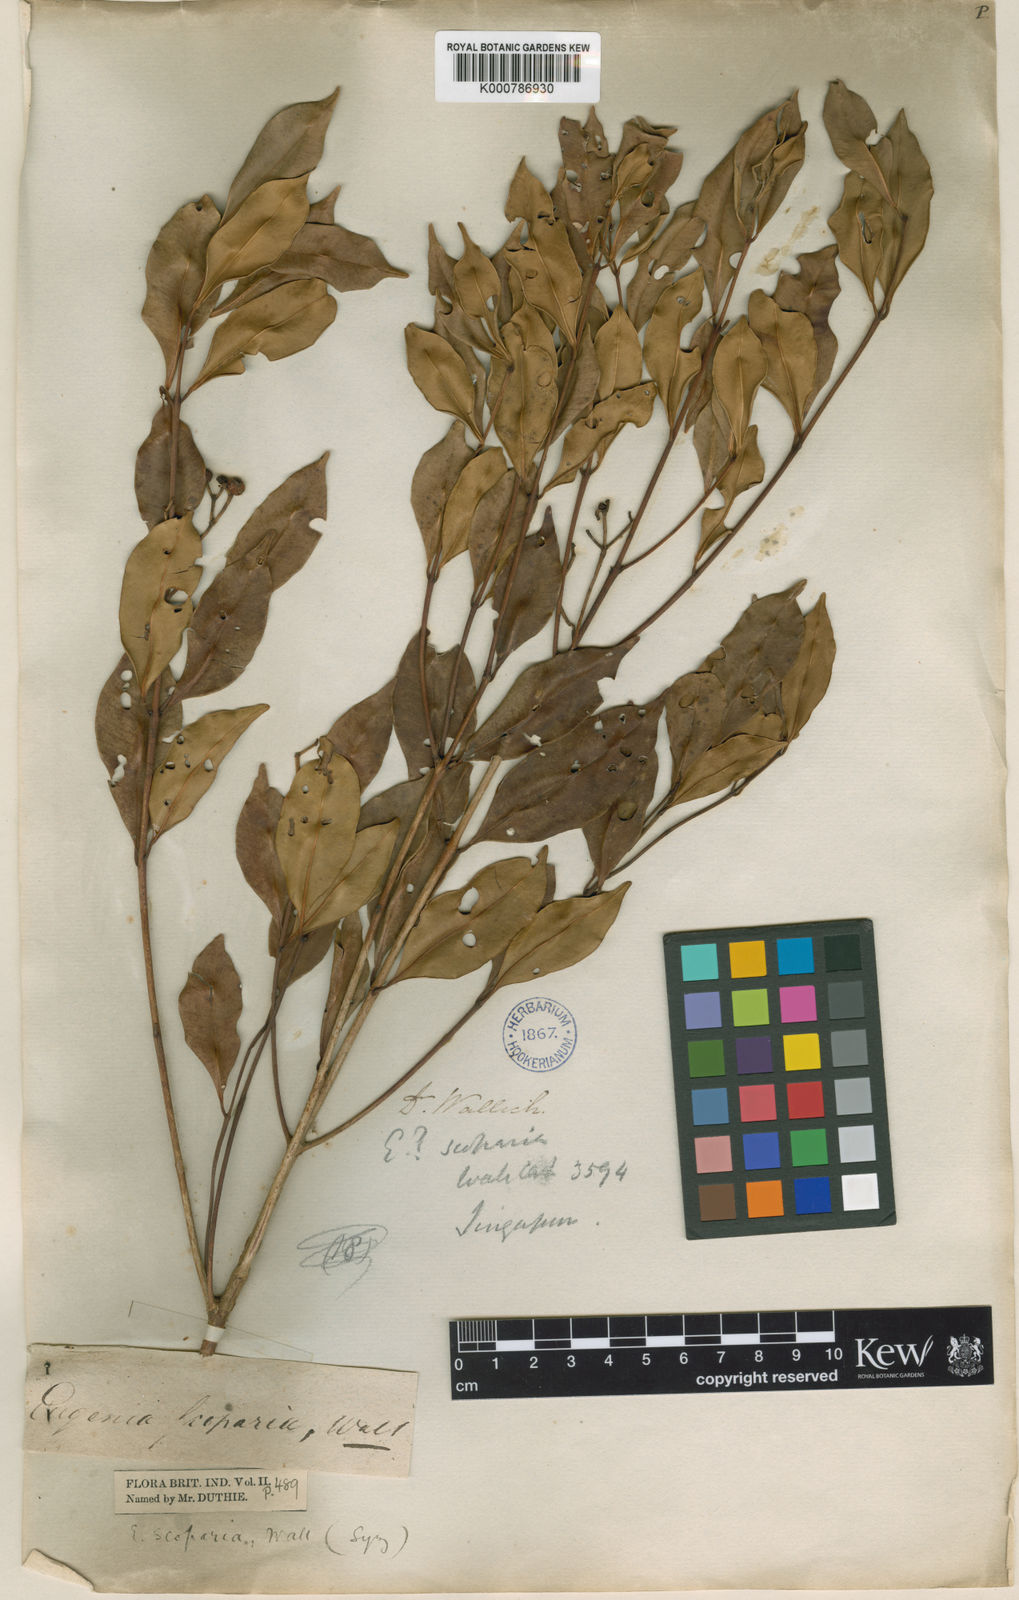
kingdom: Plantae
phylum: Tracheophyta
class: Magnoliopsida
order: Myrtales
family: Myrtaceae
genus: Syzygium
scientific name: Syzygium avene
